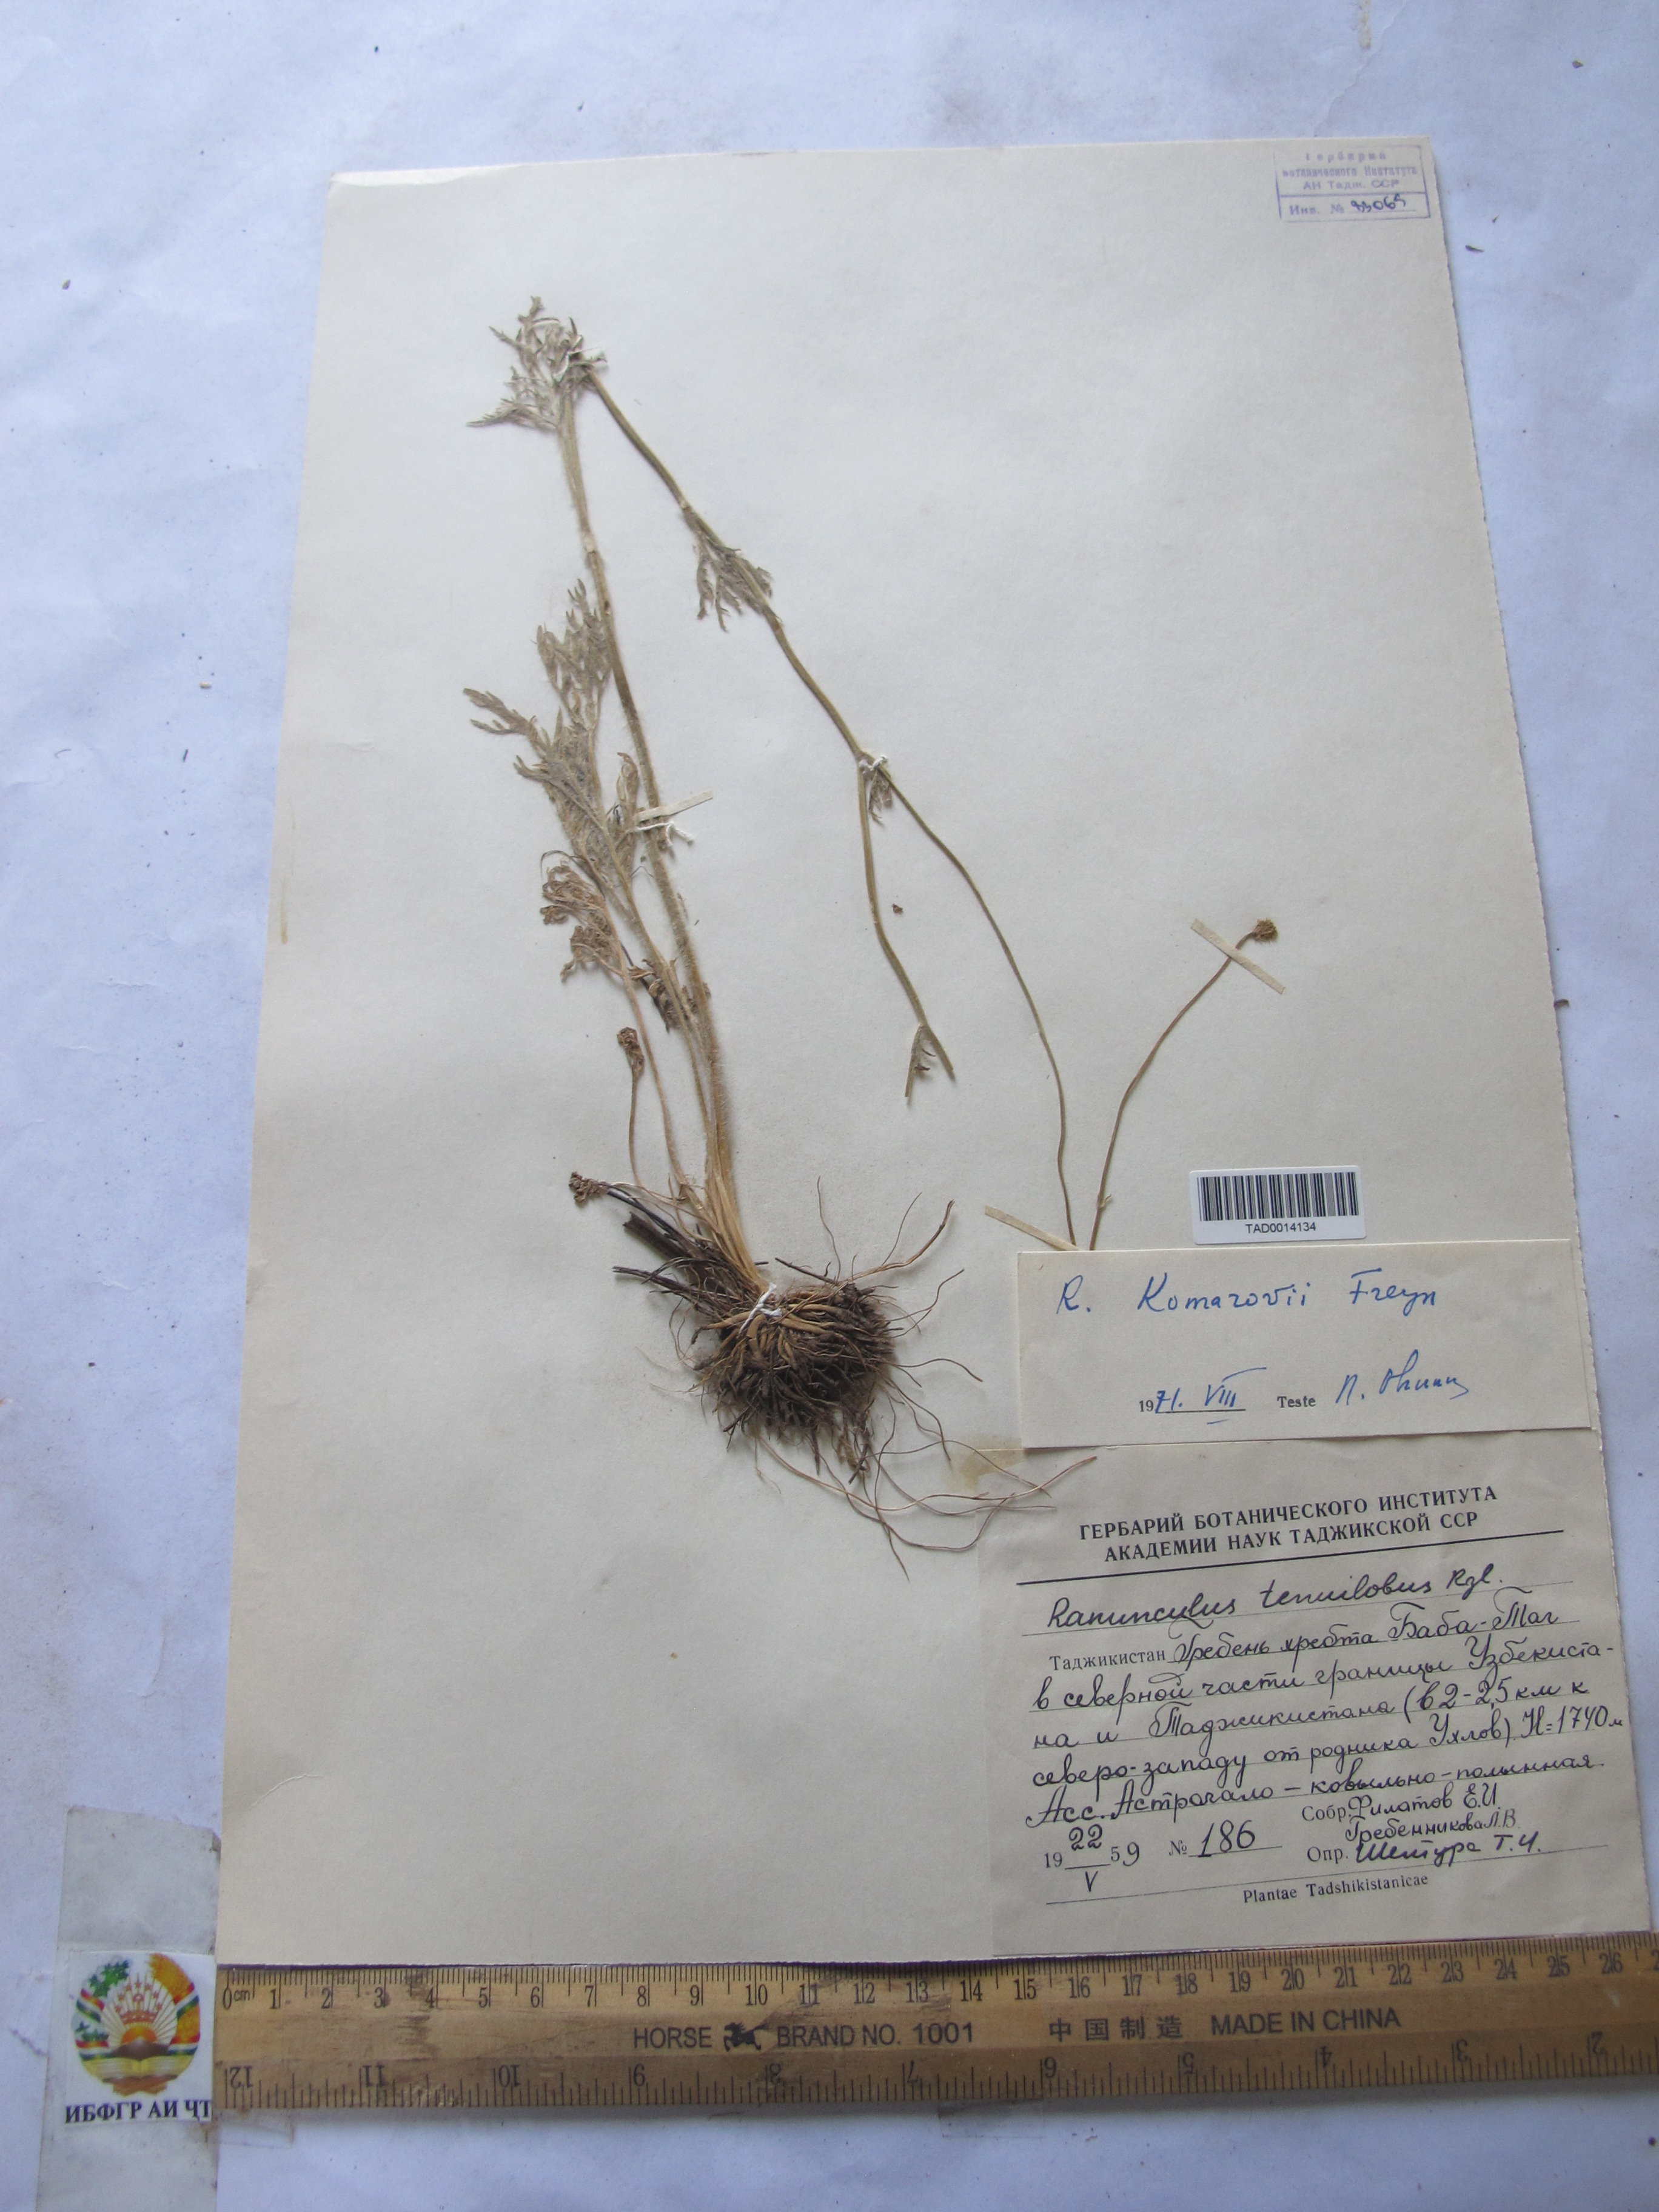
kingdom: Plantae
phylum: Tracheophyta
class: Magnoliopsida
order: Ranunculales
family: Ranunculaceae
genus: Ranunculus
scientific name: Ranunculus komarovii
